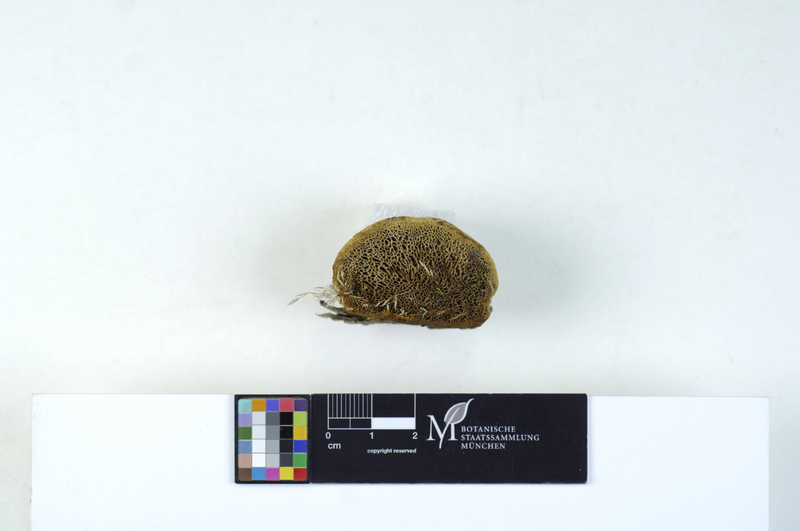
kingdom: Plantae
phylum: Tracheophyta
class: Pinopsida
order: Pinales
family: Pinaceae
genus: Pinus
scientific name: Pinus sylvestris
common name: Scots pine
